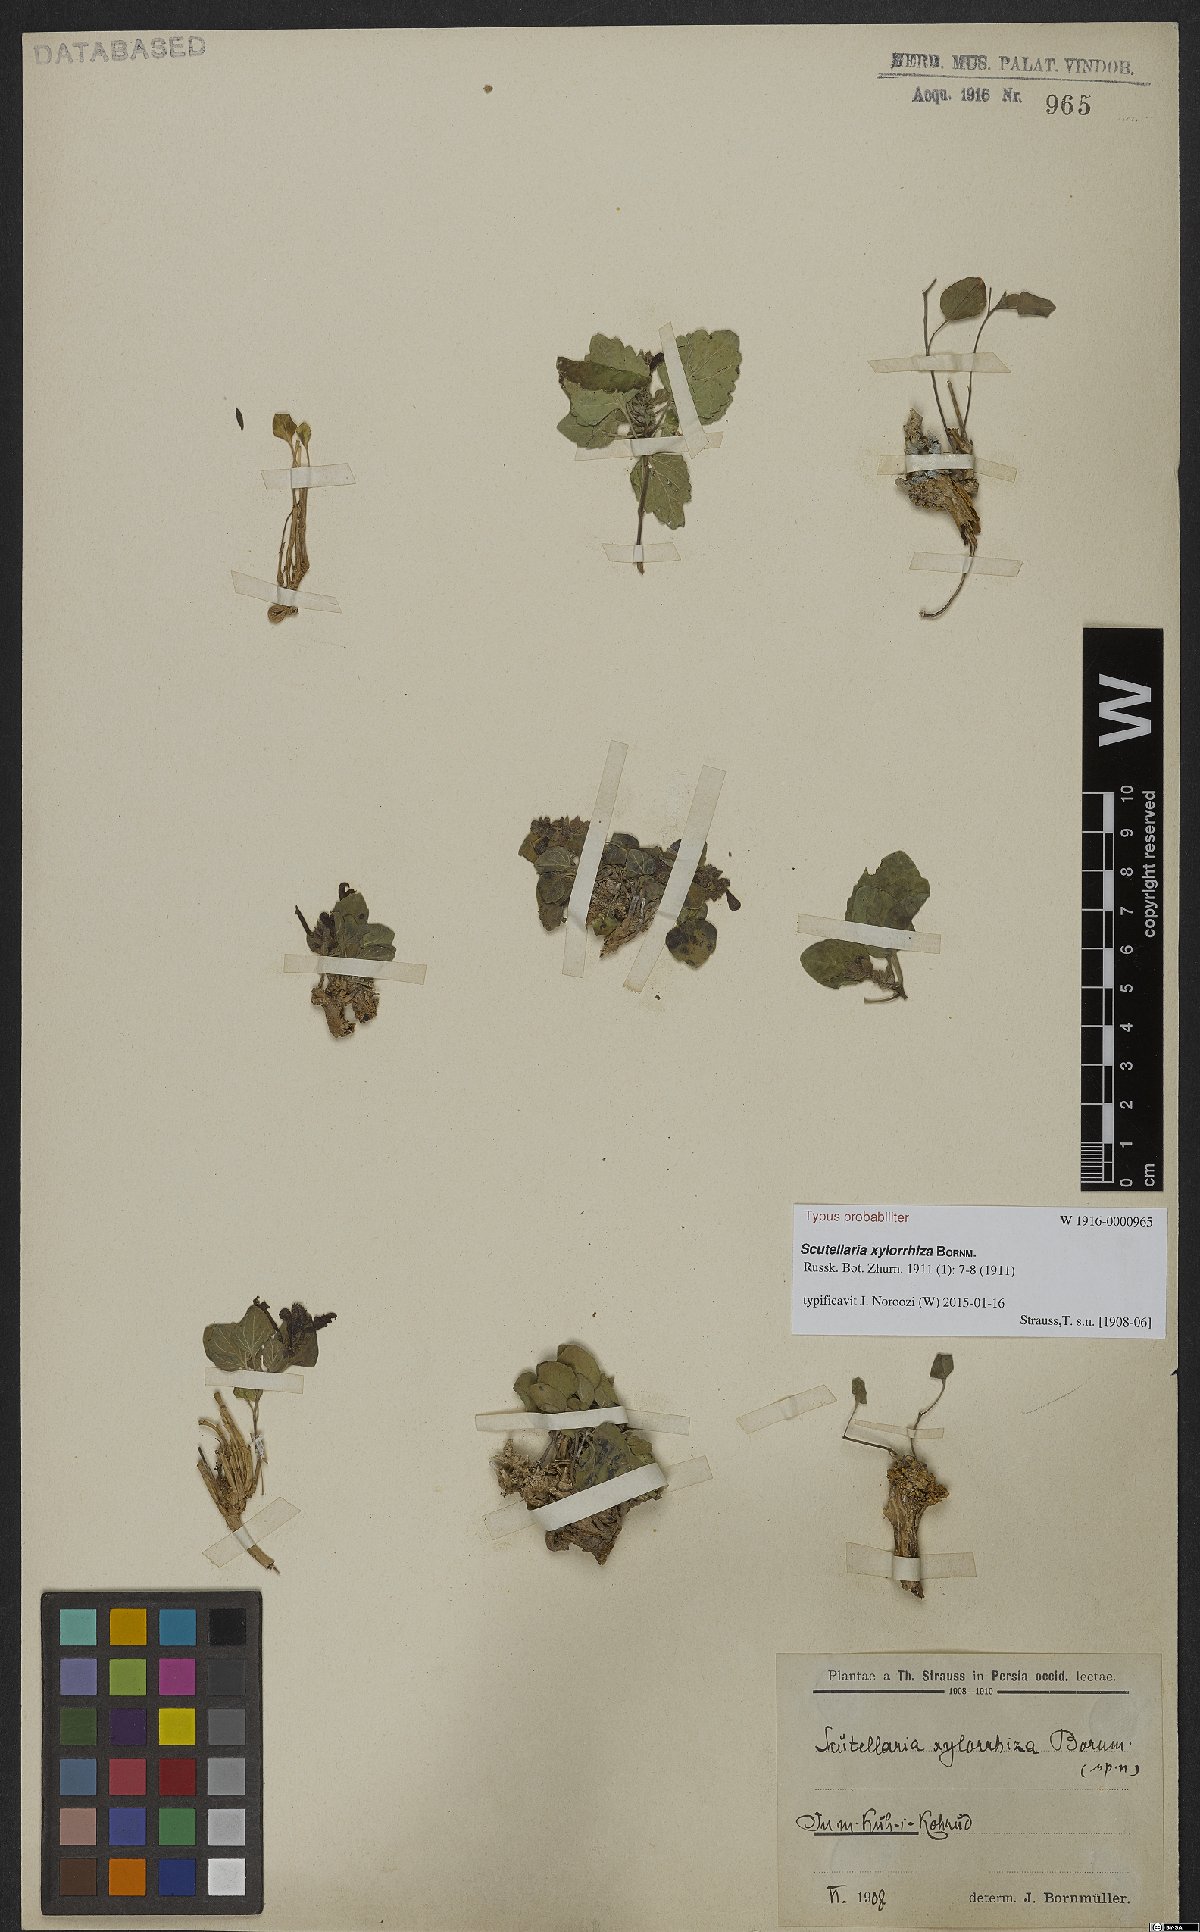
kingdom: Plantae
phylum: Tracheophyta
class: Magnoliopsida
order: Lamiales
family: Lamiaceae
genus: Scutellaria
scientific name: Scutellaria xylorrhiza
